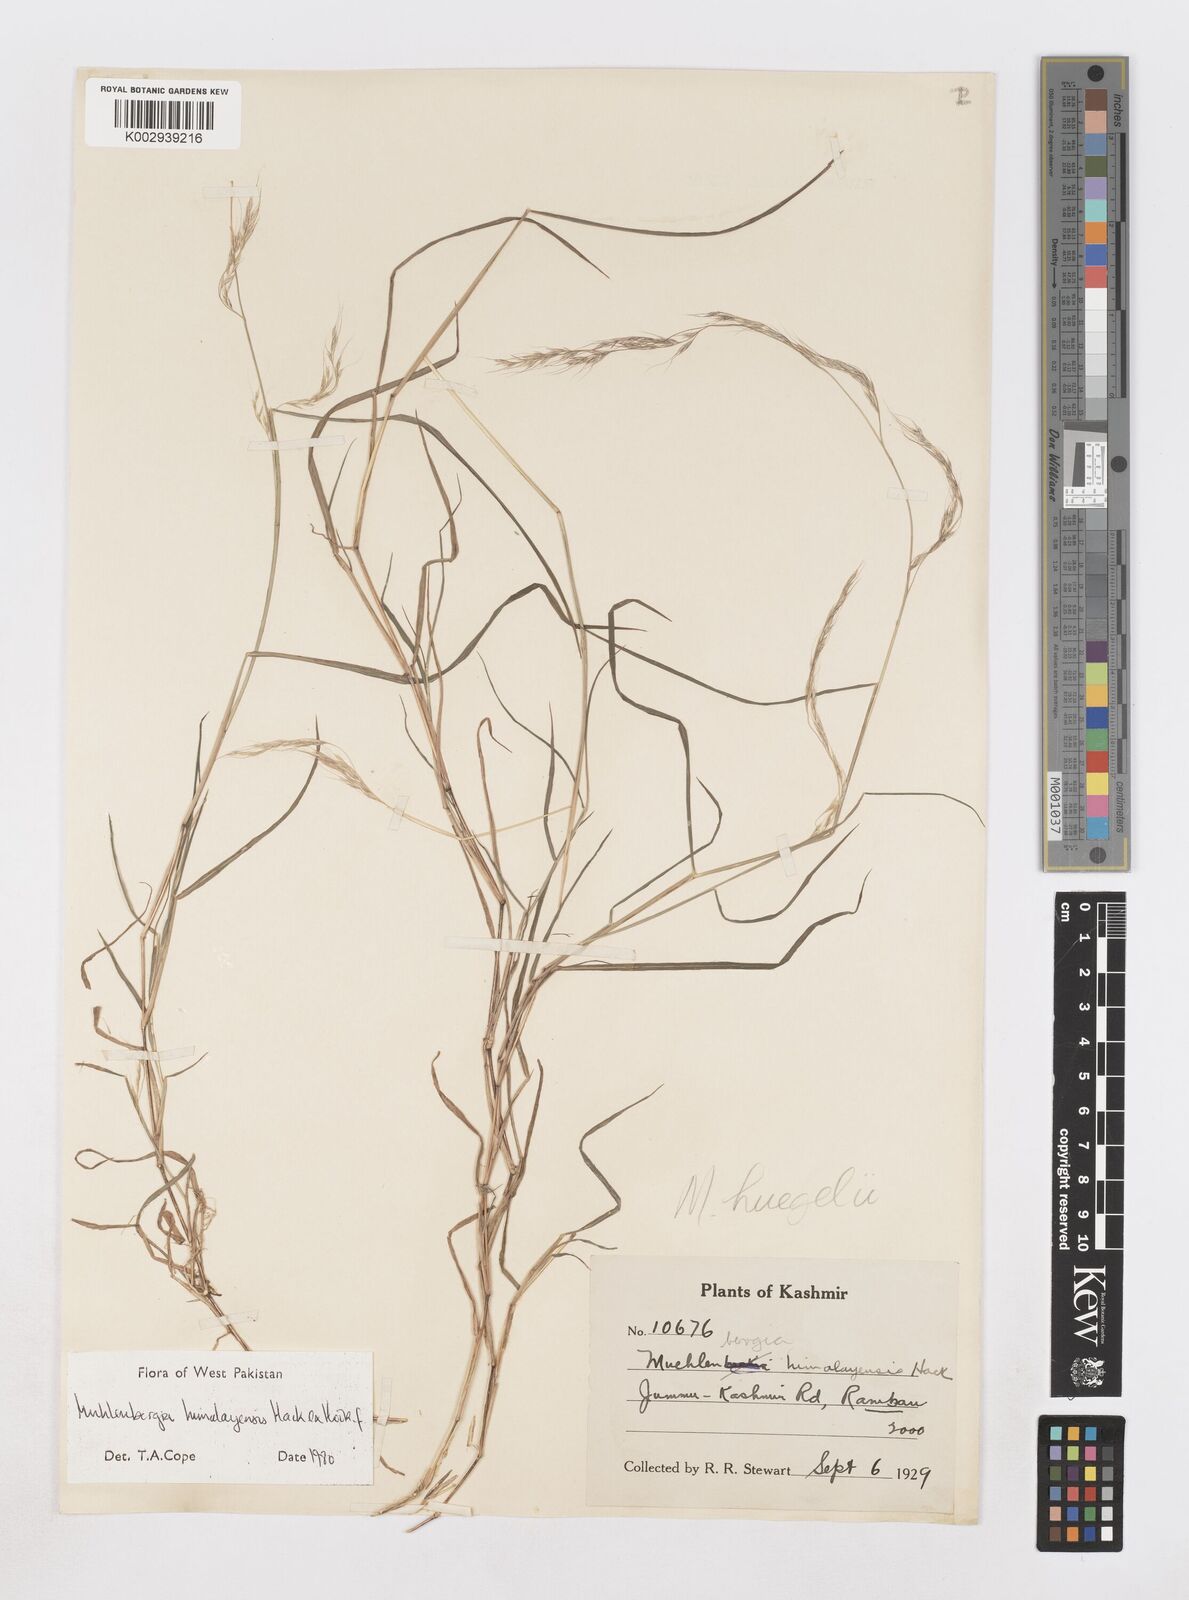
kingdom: Plantae
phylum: Tracheophyta
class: Liliopsida
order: Poales
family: Poaceae
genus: Muhlenbergia
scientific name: Muhlenbergia himalayensis
